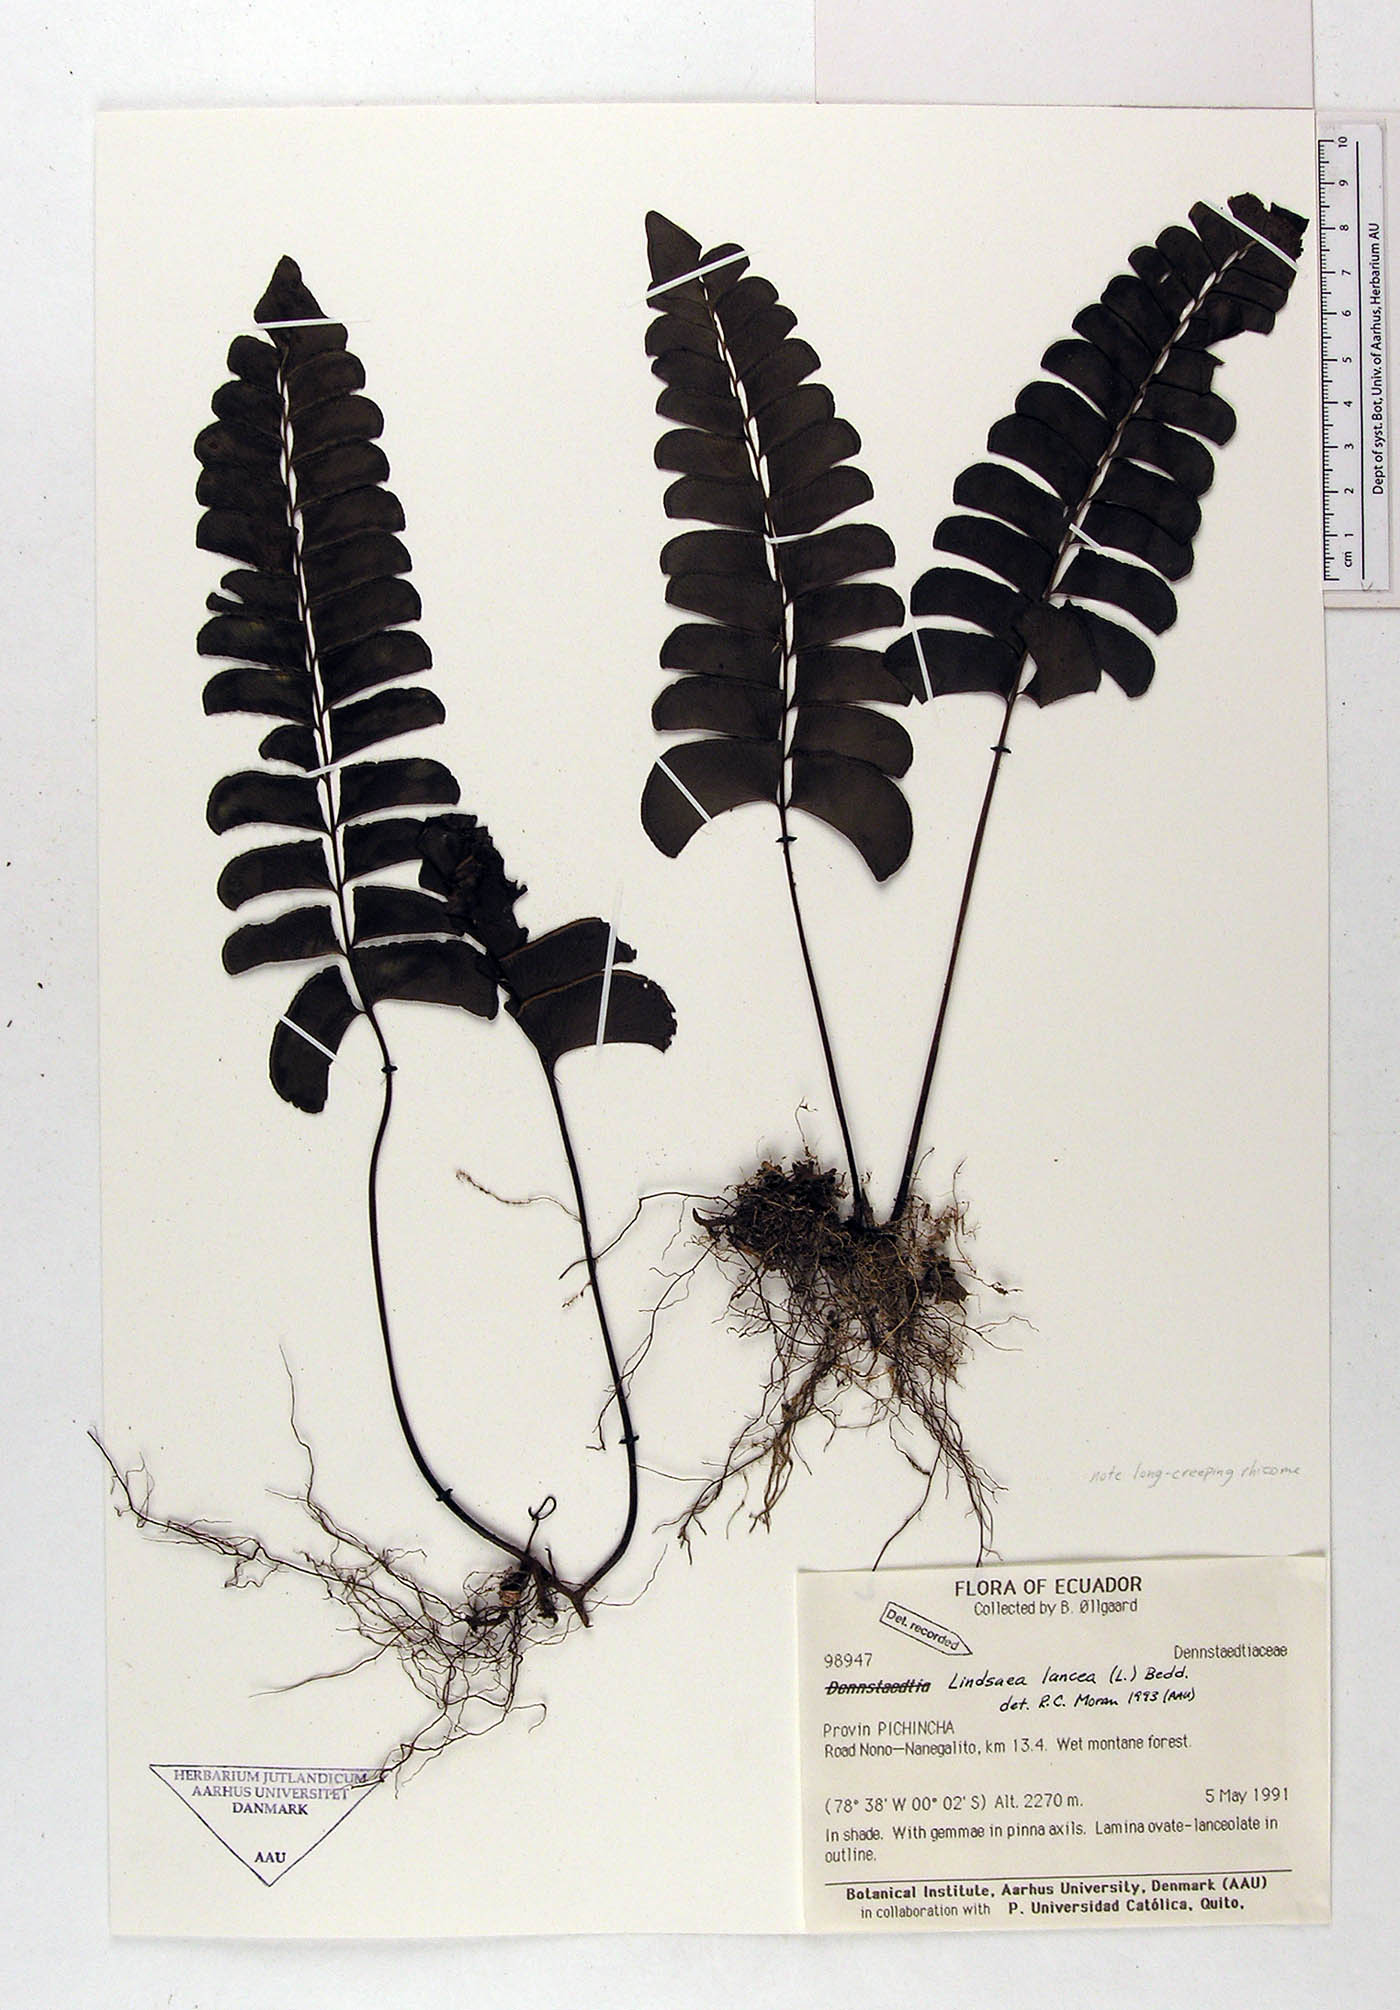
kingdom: Plantae
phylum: Tracheophyta
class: Polypodiopsida
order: Polypodiales
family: Dennstaedtiaceae
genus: Dennstaedtia
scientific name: Dennstaedtia cornuta
